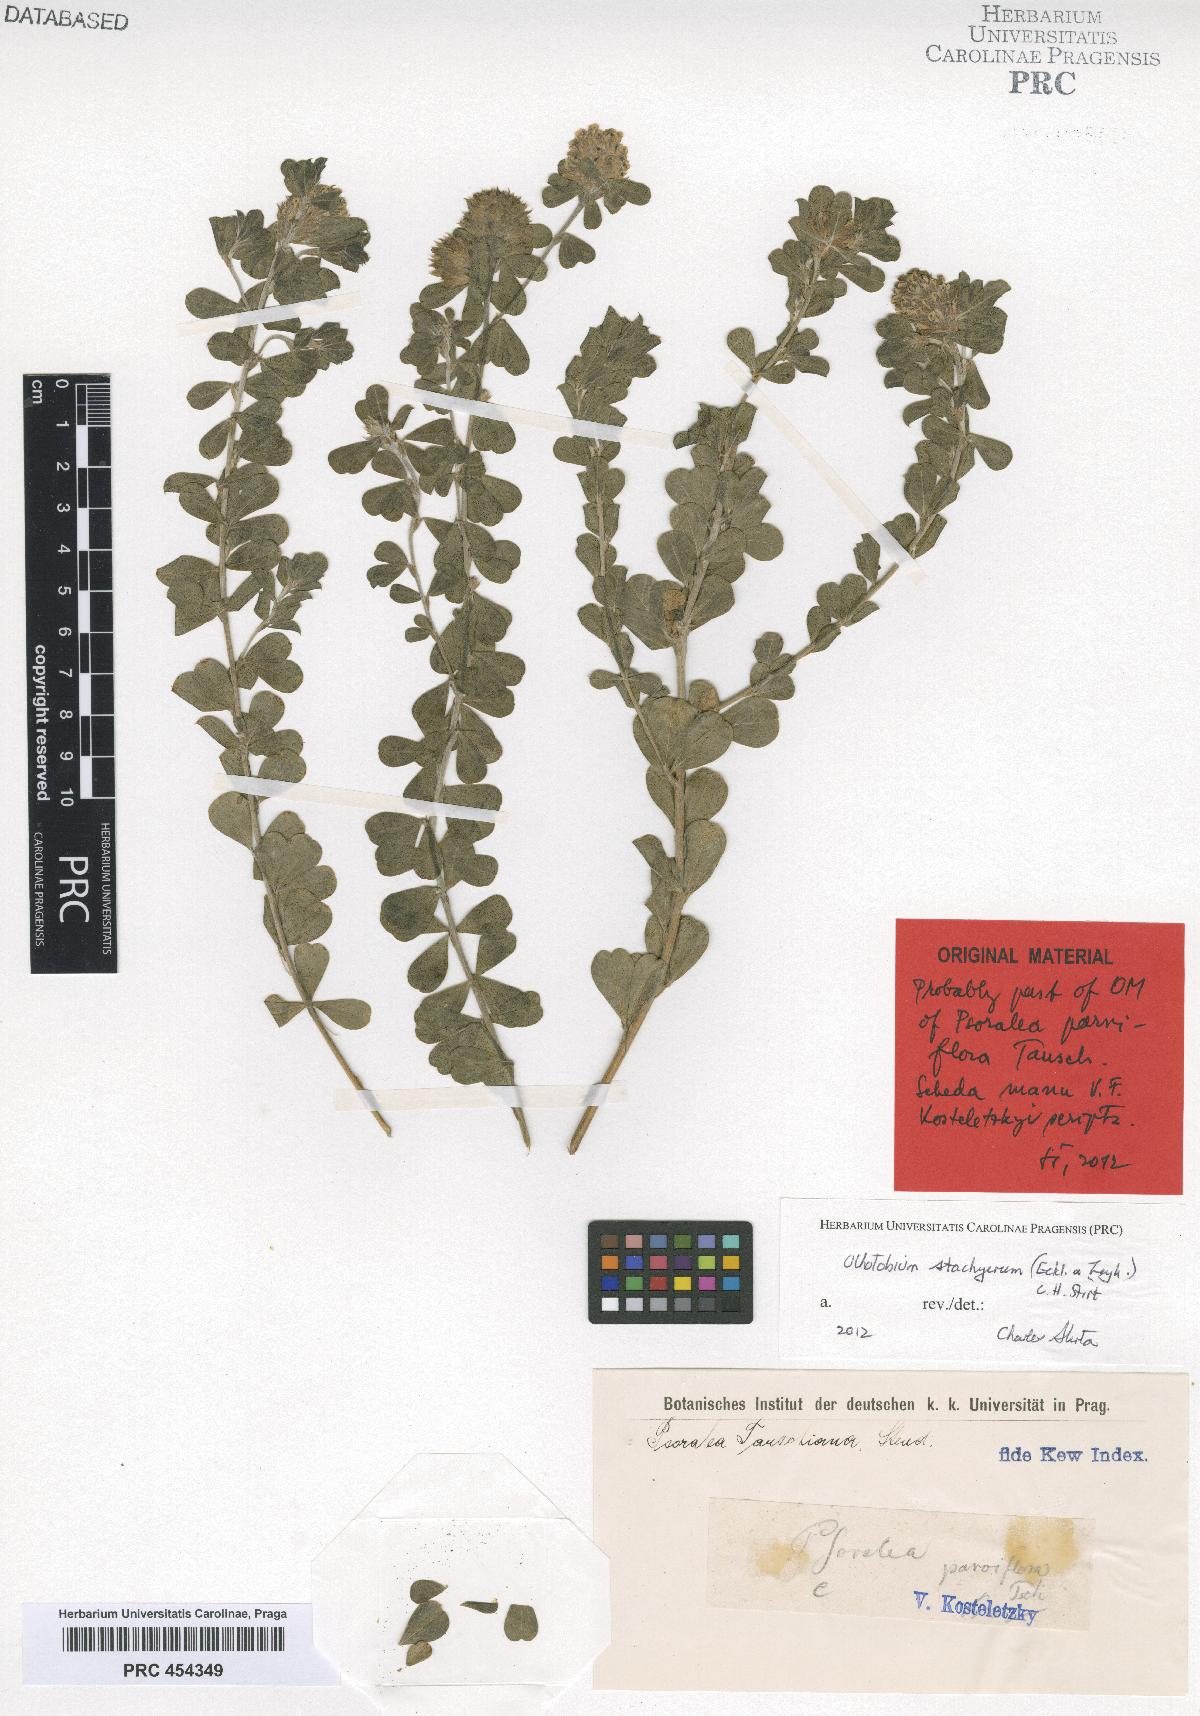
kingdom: Plantae
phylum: Tracheophyta
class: Magnoliopsida
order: Fabales
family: Fabaceae
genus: Psoralea
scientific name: Psoralea tauschiana
